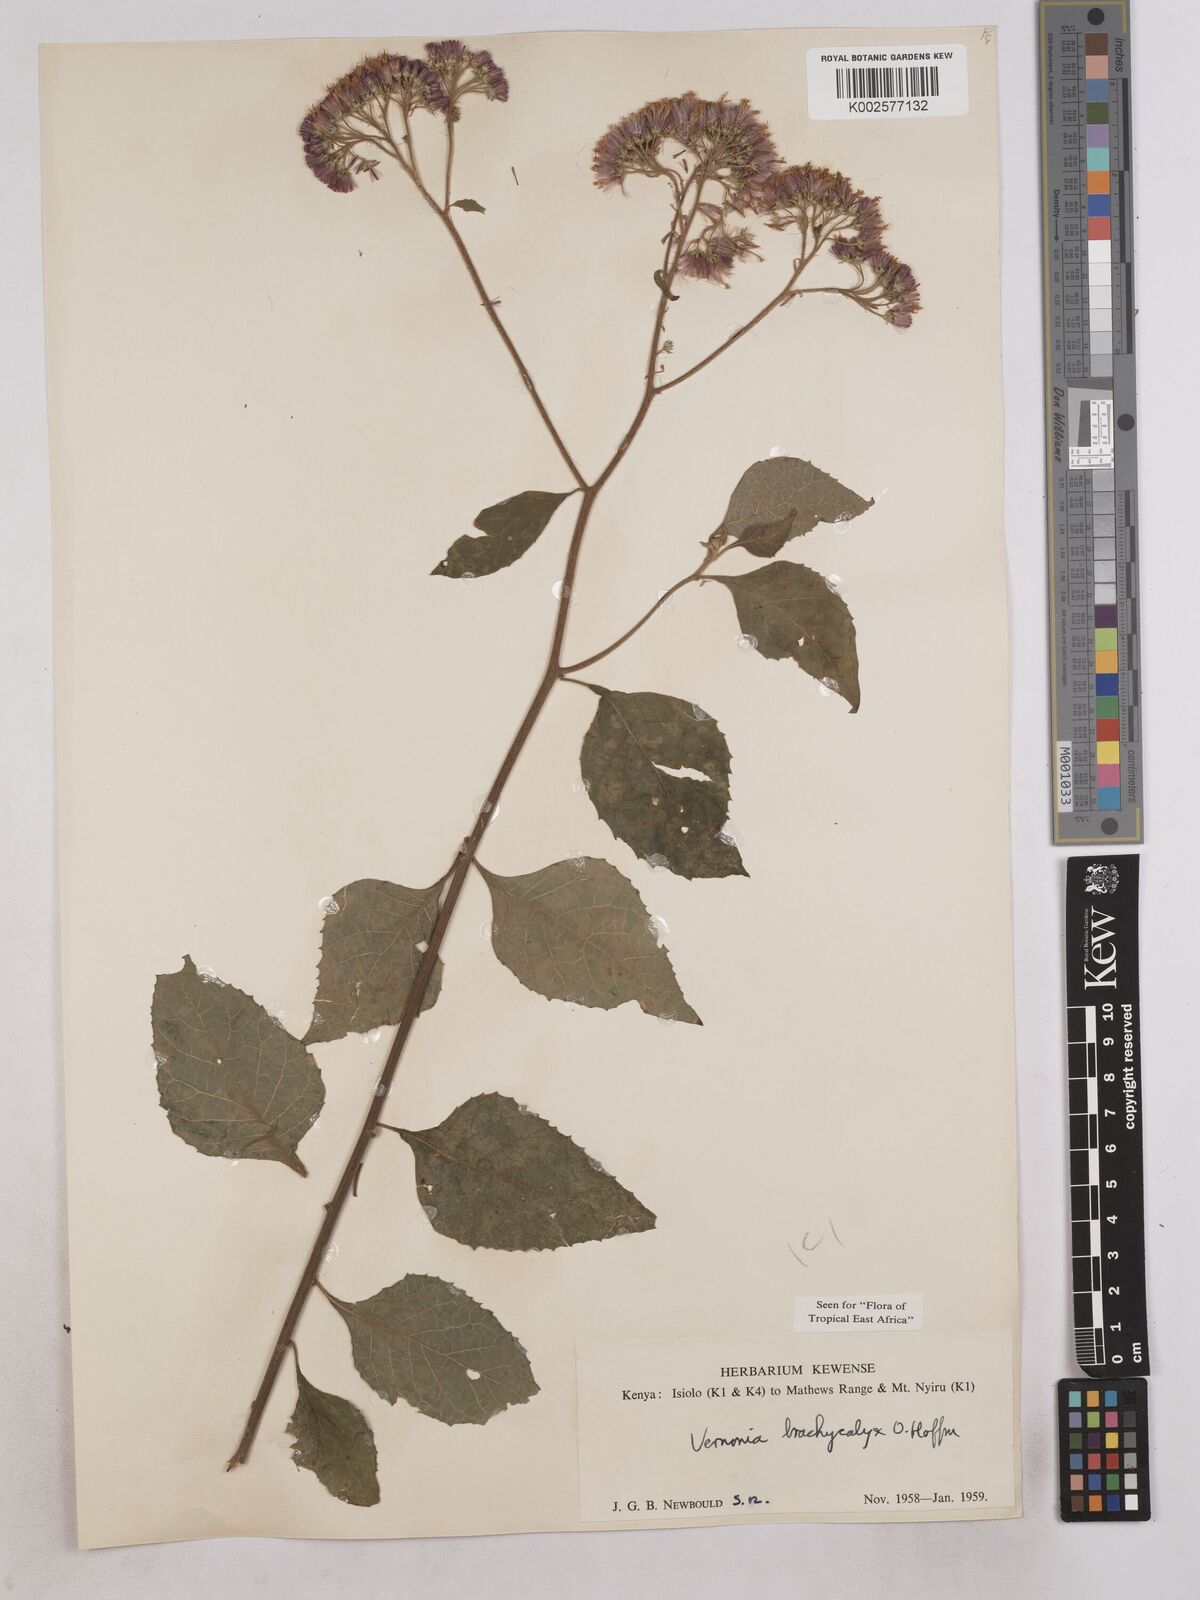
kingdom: Plantae
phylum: Tracheophyta
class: Magnoliopsida
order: Asterales
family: Asteraceae
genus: Hoffmannanthus
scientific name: Hoffmannanthus abbotianus
